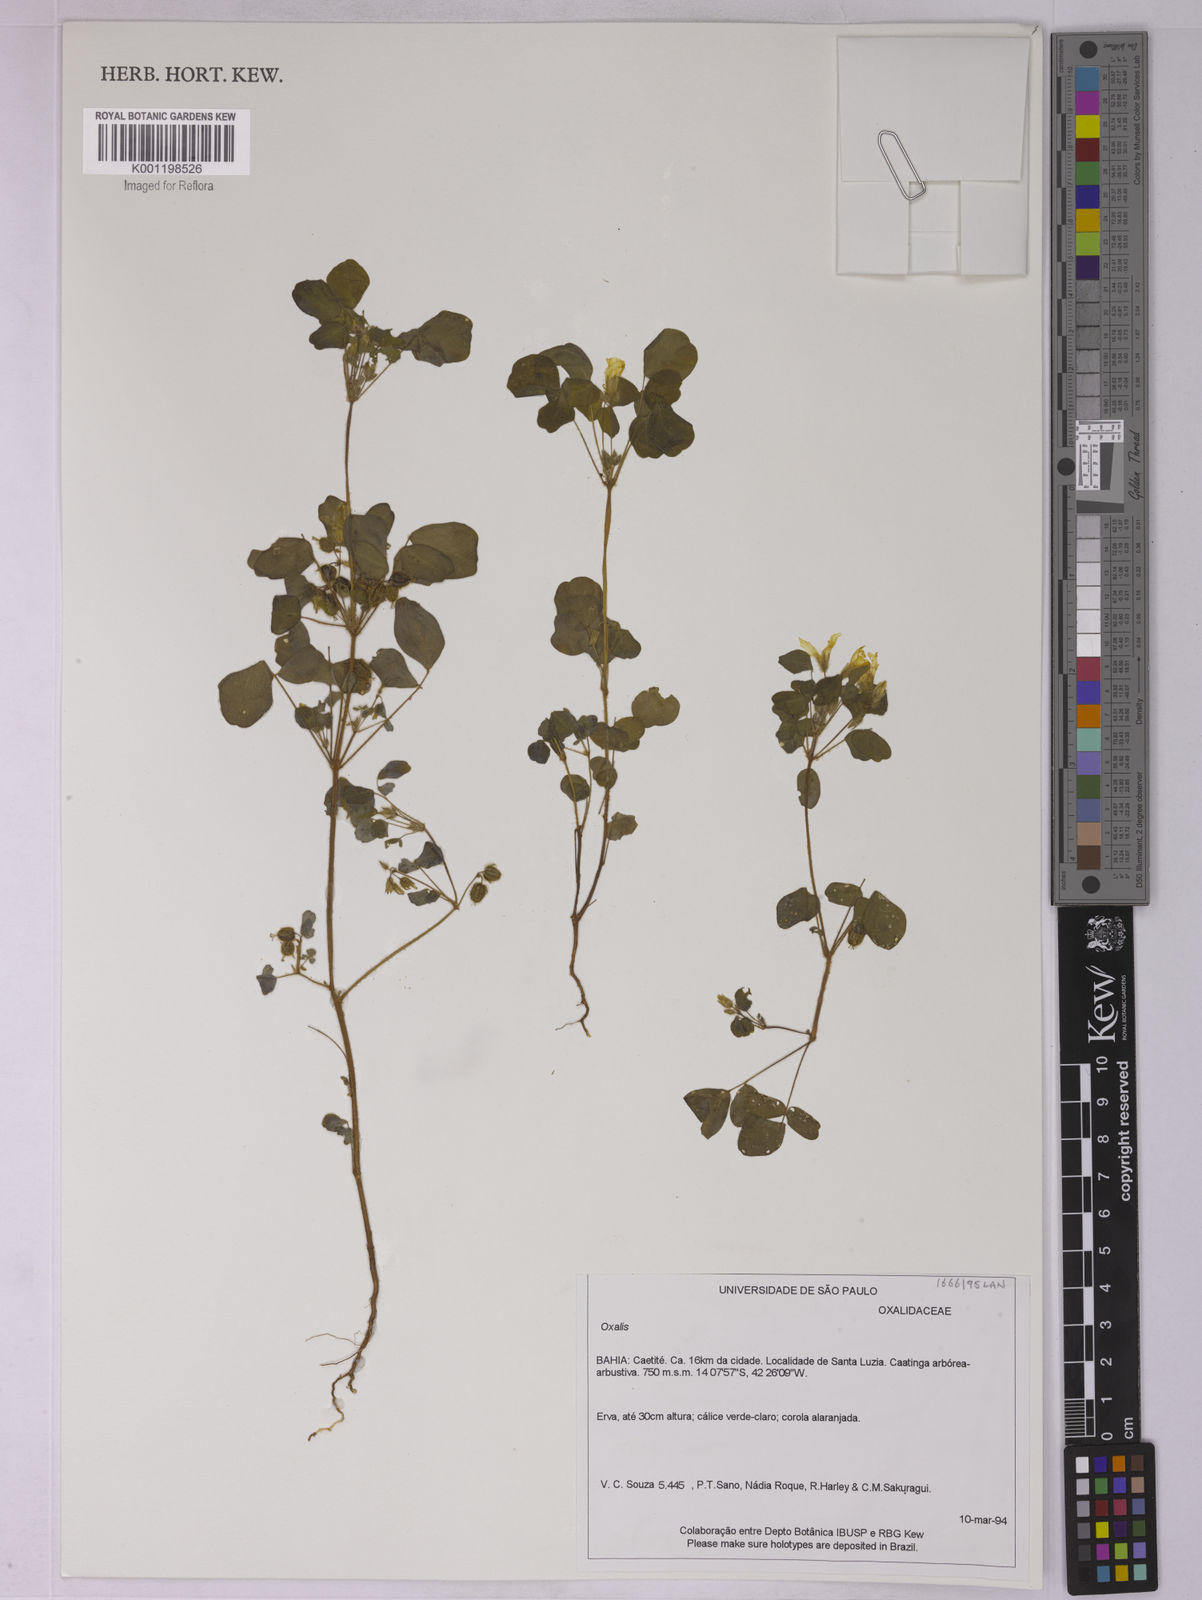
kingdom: Plantae
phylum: Tracheophyta
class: Magnoliopsida
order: Oxalidales
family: Oxalidaceae
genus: Oxalis
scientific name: Oxalis
